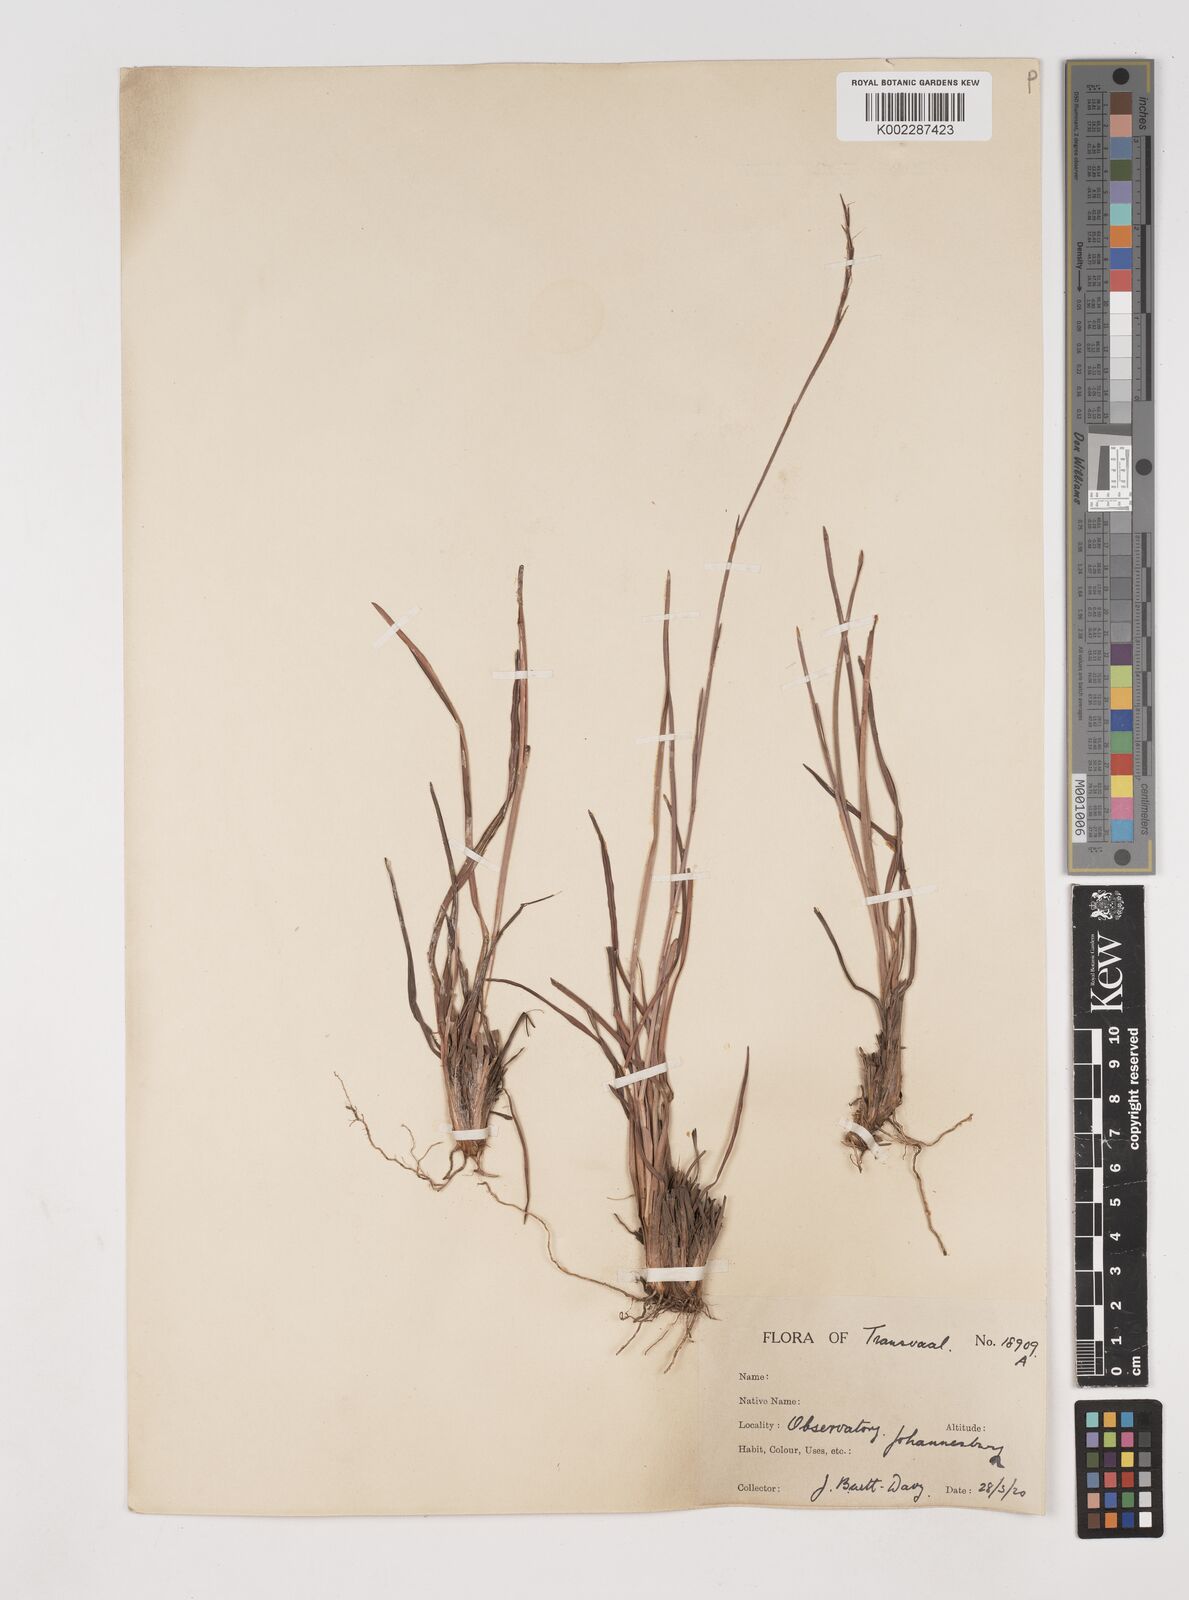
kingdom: Plantae
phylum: Tracheophyta
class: Liliopsida
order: Poales
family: Poaceae
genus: Schizachyrium
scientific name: Schizachyrium sanguineum
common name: Crimson bluestem
